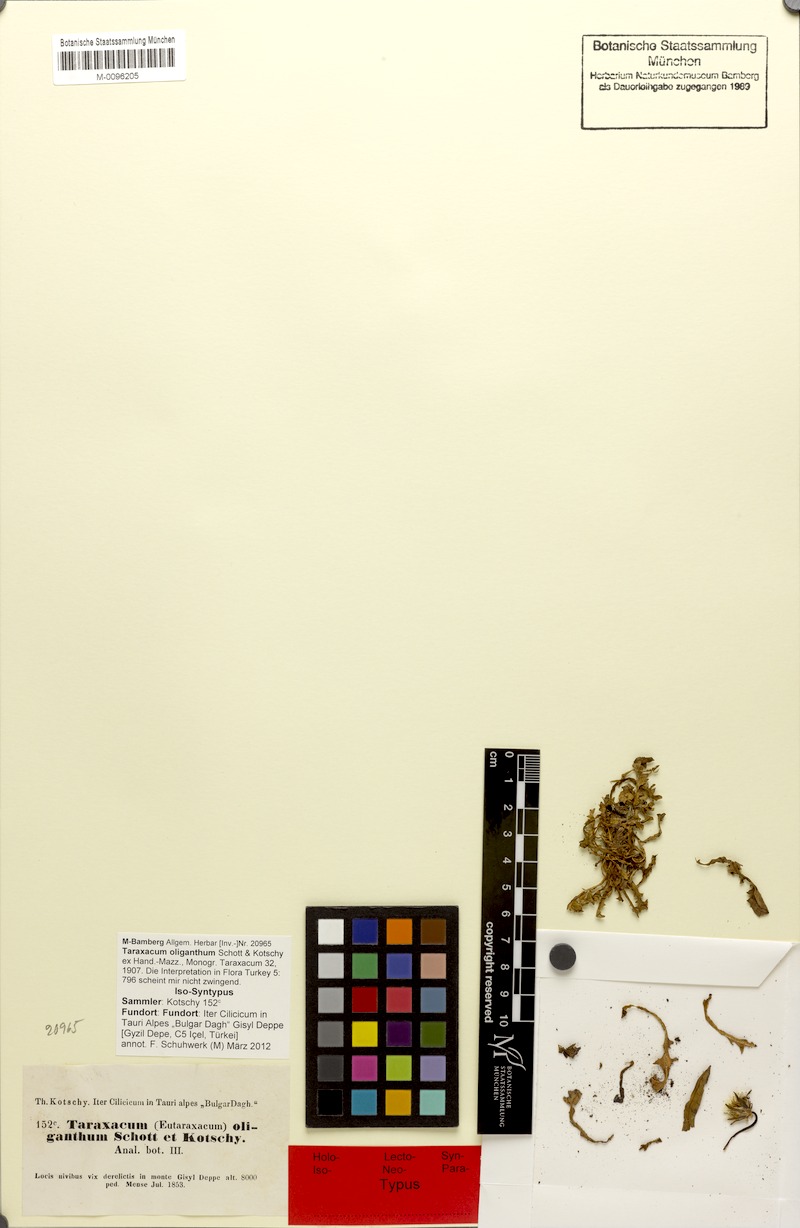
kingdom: Plantae
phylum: Tracheophyta
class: Magnoliopsida
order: Asterales
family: Asteraceae
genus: Taraxacum
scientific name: Taraxacum oliganthum
